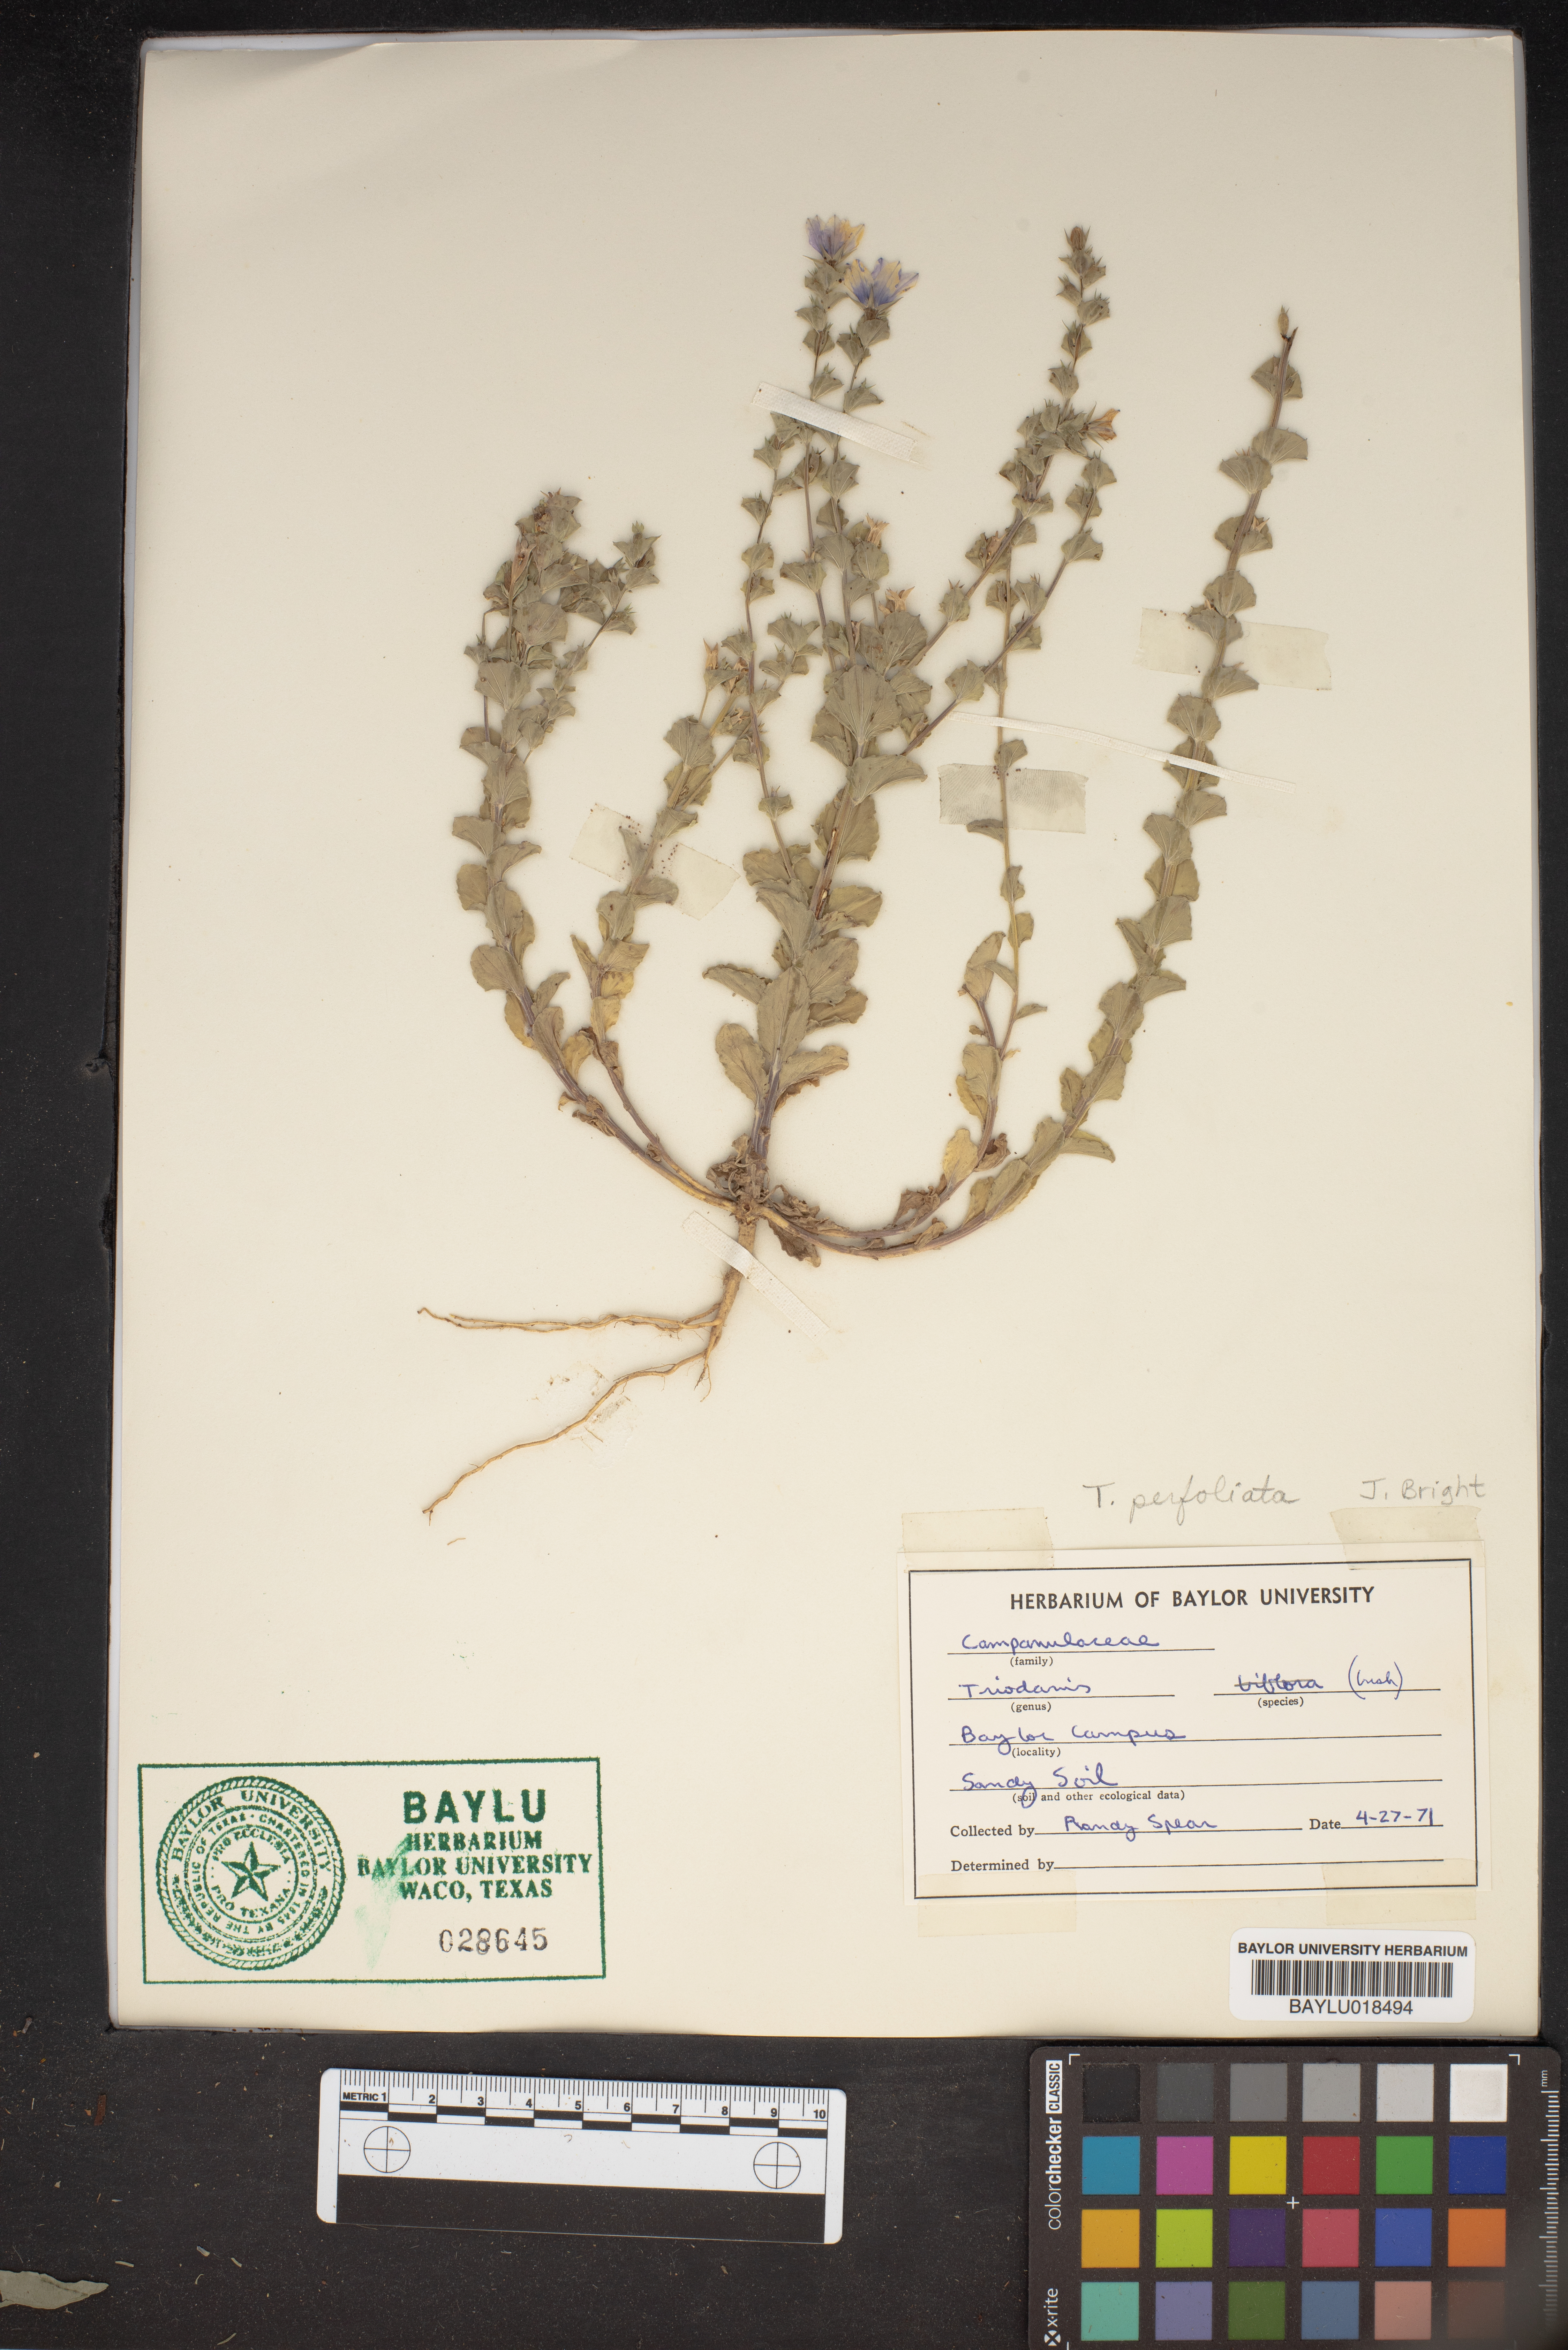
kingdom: Plantae
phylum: Tracheophyta
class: Magnoliopsida
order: Asterales
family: Campanulaceae
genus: Triodanis
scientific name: Triodanis perfoliata
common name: Clasping venus' looking-glass
